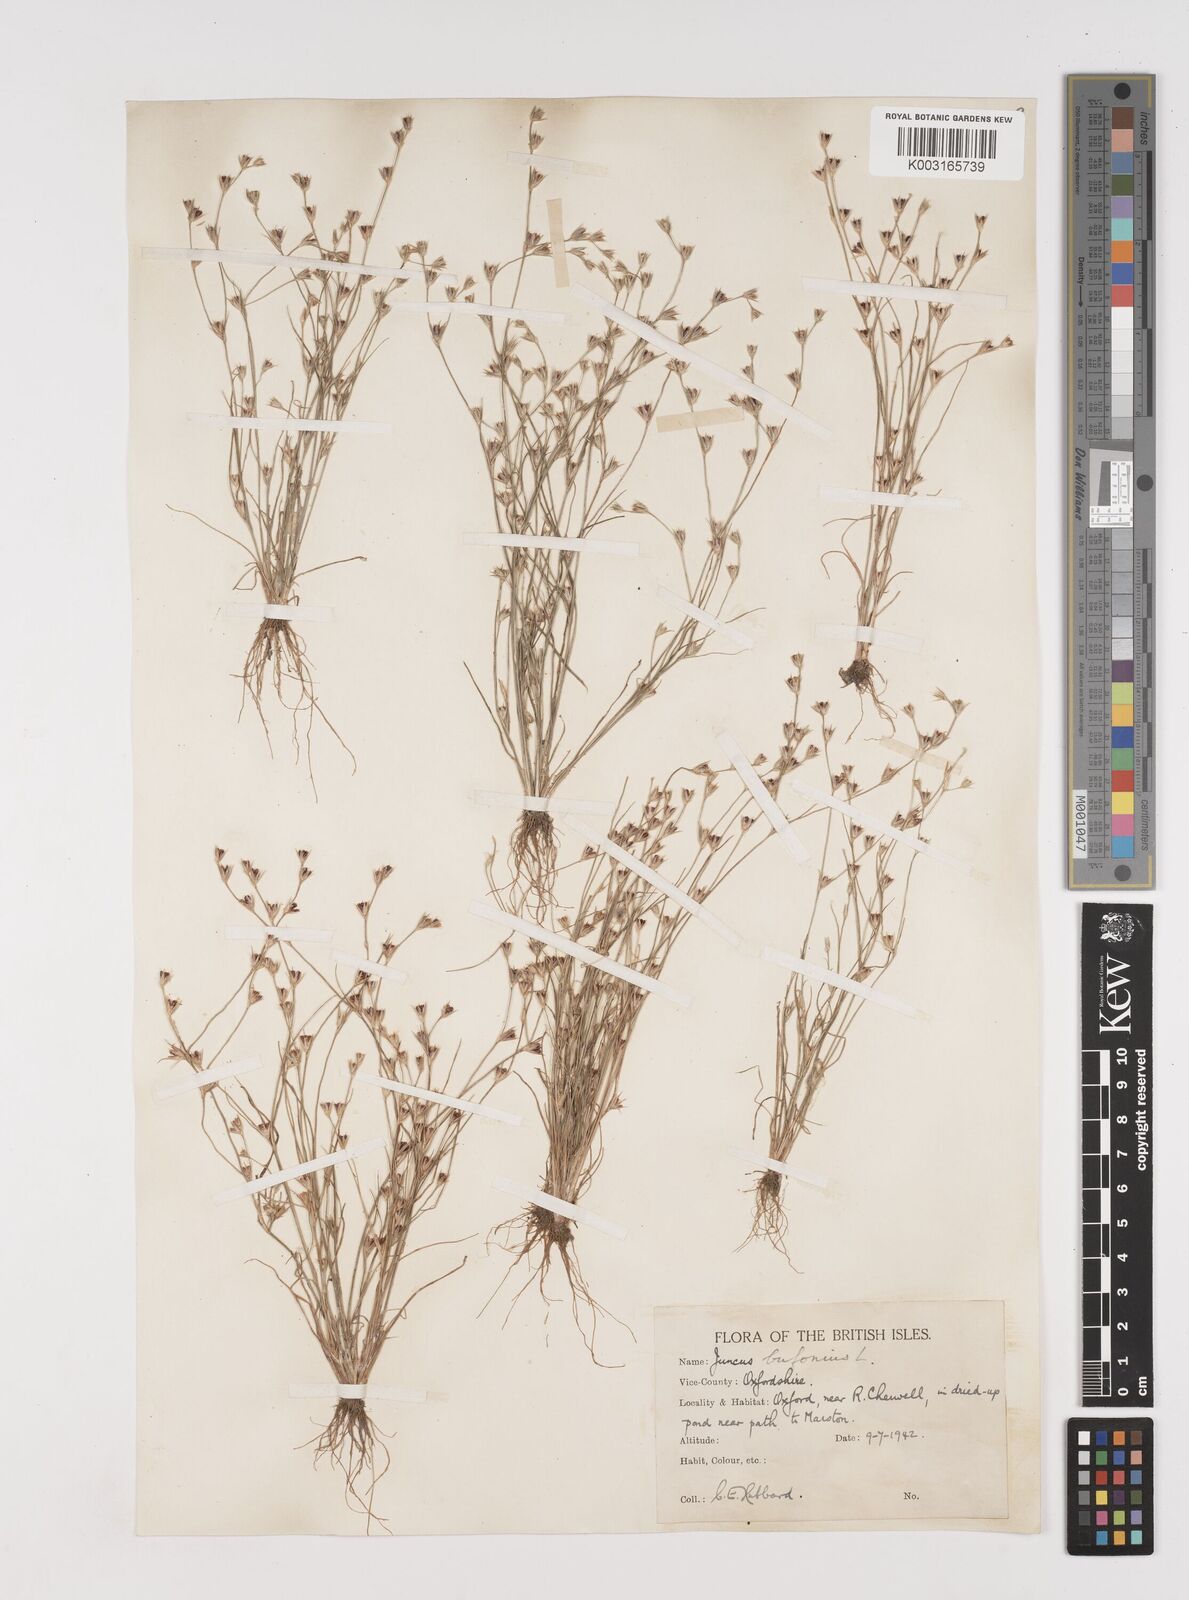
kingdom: Plantae
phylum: Tracheophyta
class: Liliopsida
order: Poales
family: Juncaceae
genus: Juncus
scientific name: Juncus bufonius
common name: Toad rush
